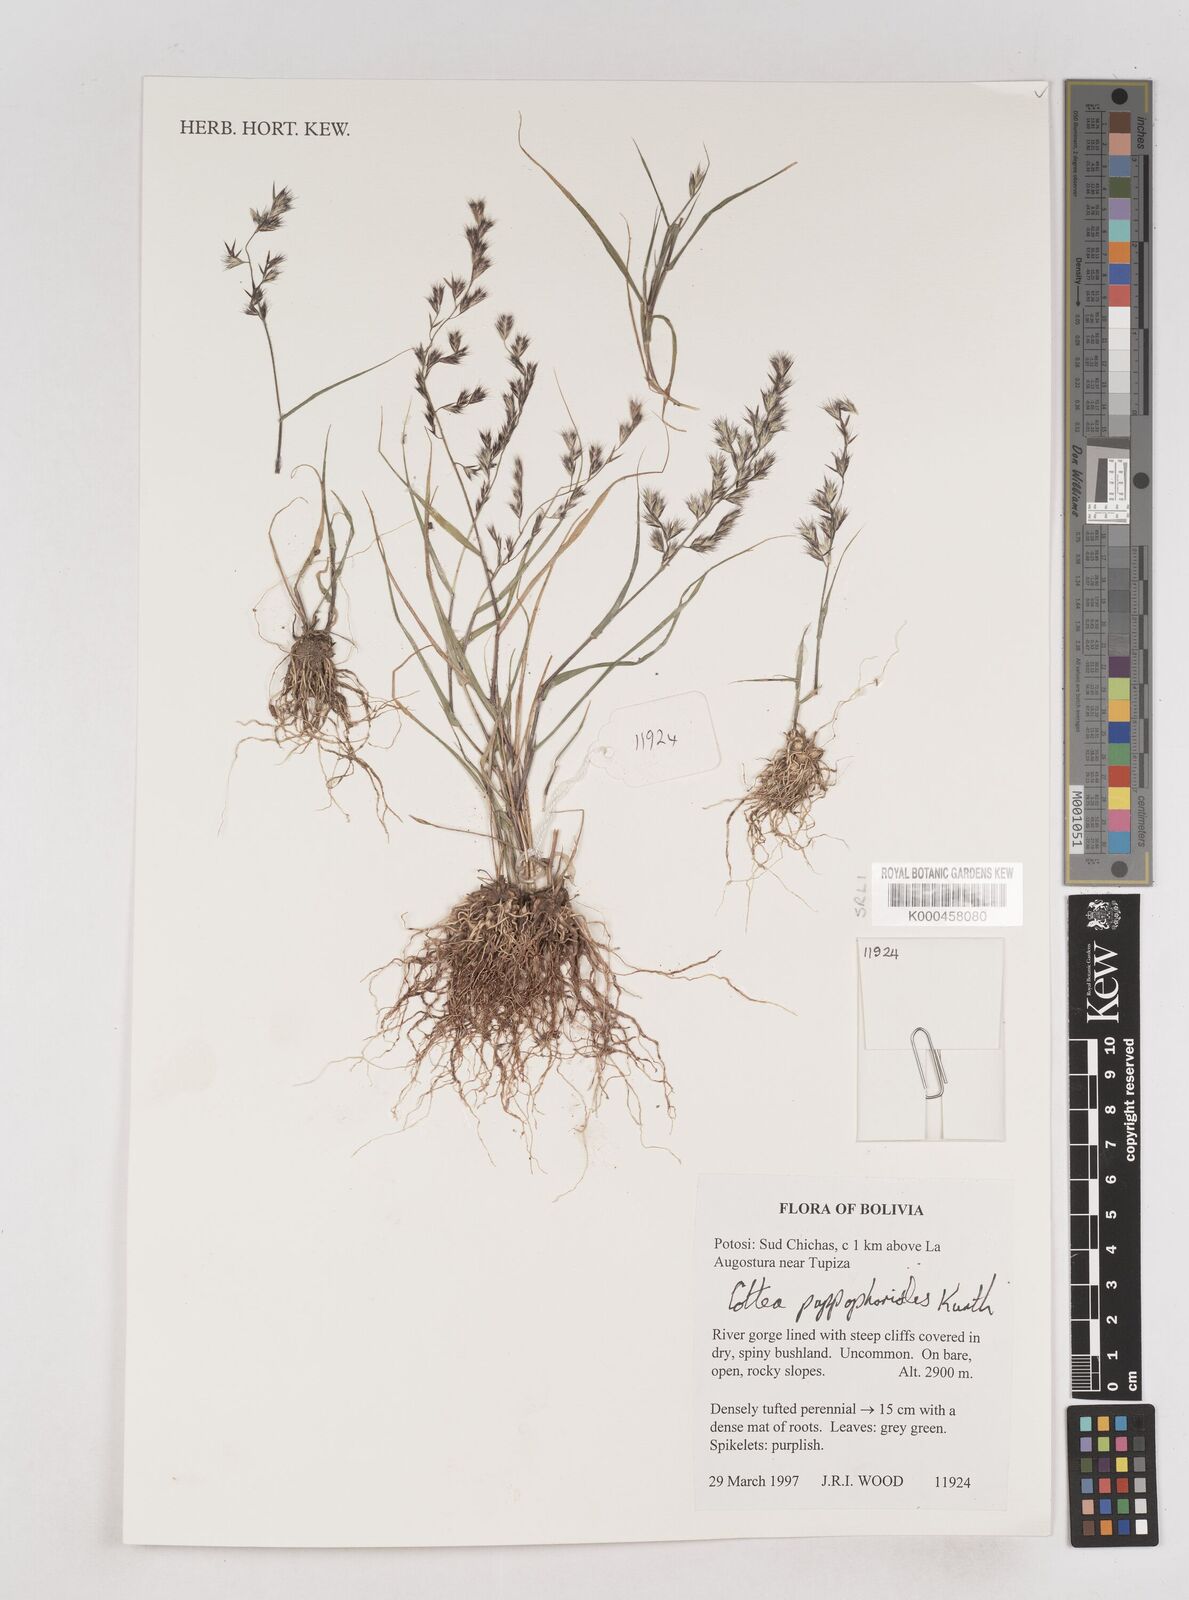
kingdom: Plantae
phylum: Tracheophyta
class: Liliopsida
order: Poales
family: Poaceae
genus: Cottea
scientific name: Cottea
